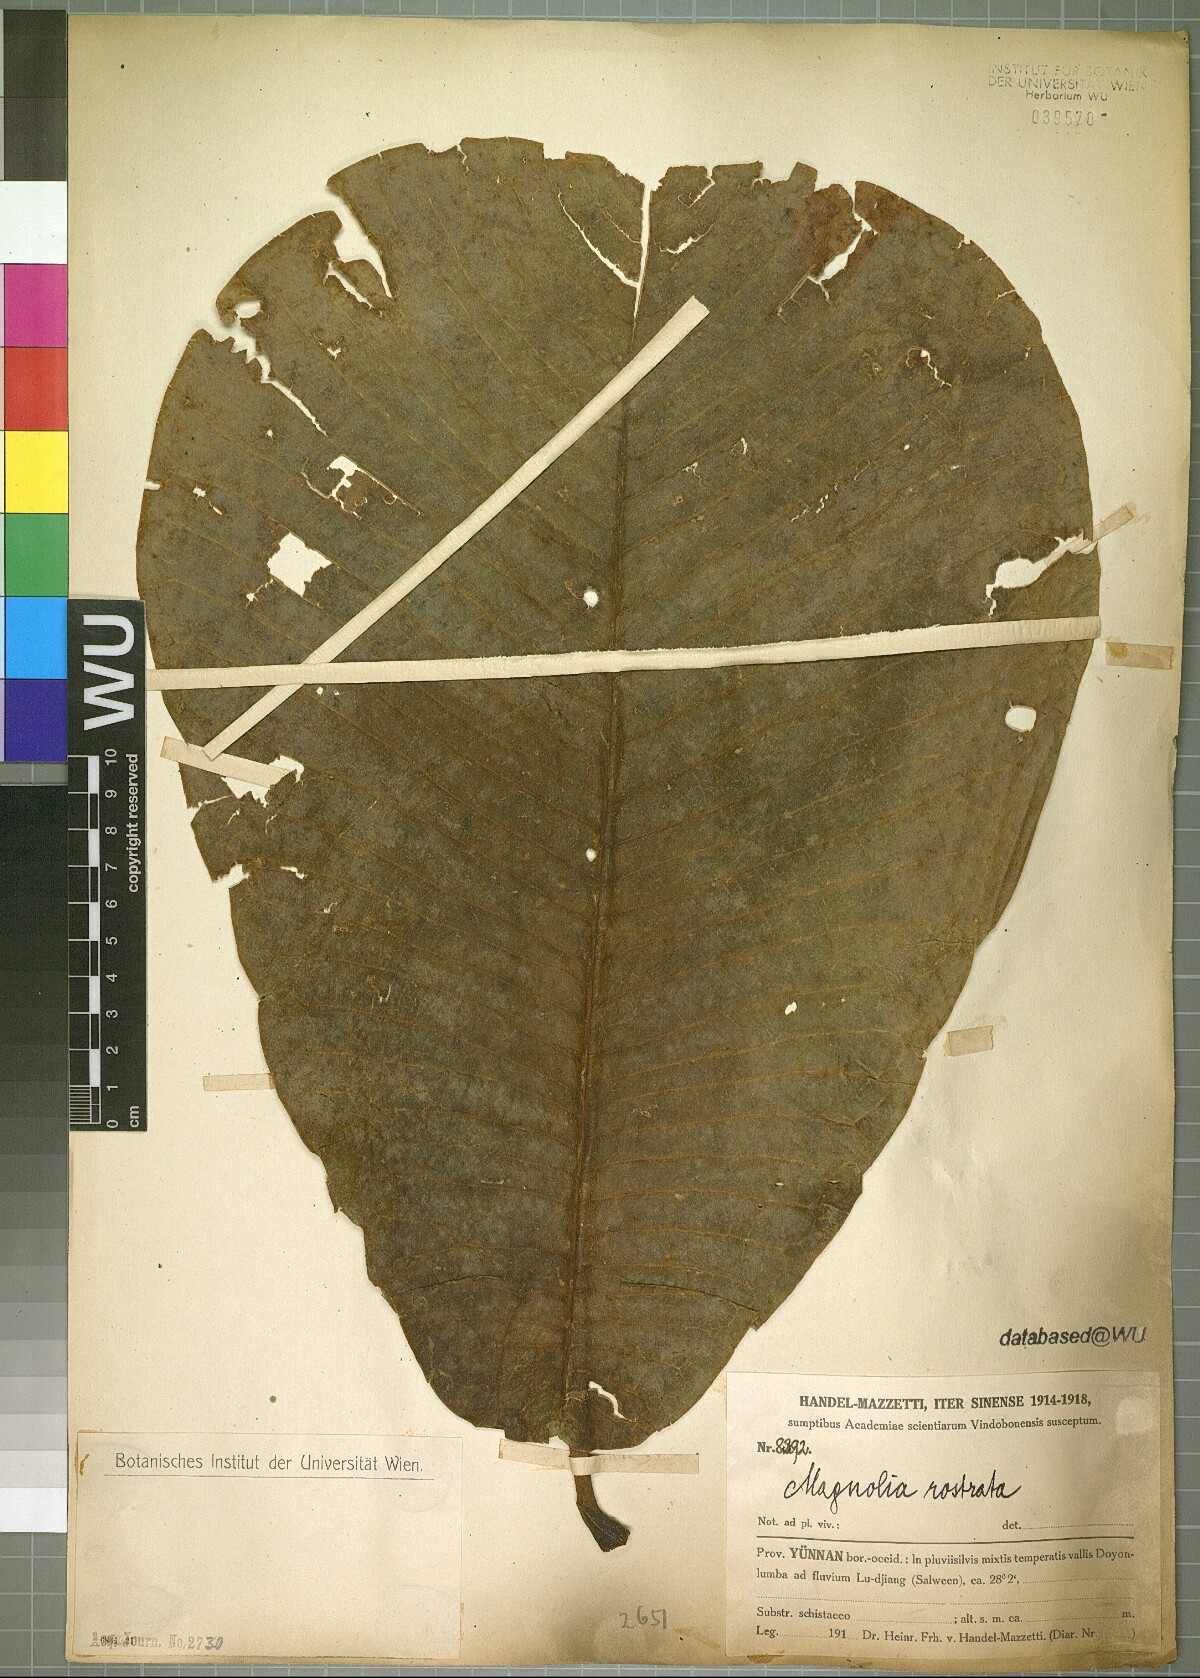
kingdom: Plantae
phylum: Tracheophyta
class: Magnoliopsida
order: Magnoliales
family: Magnoliaceae
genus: Magnolia
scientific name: Magnolia rostrata
